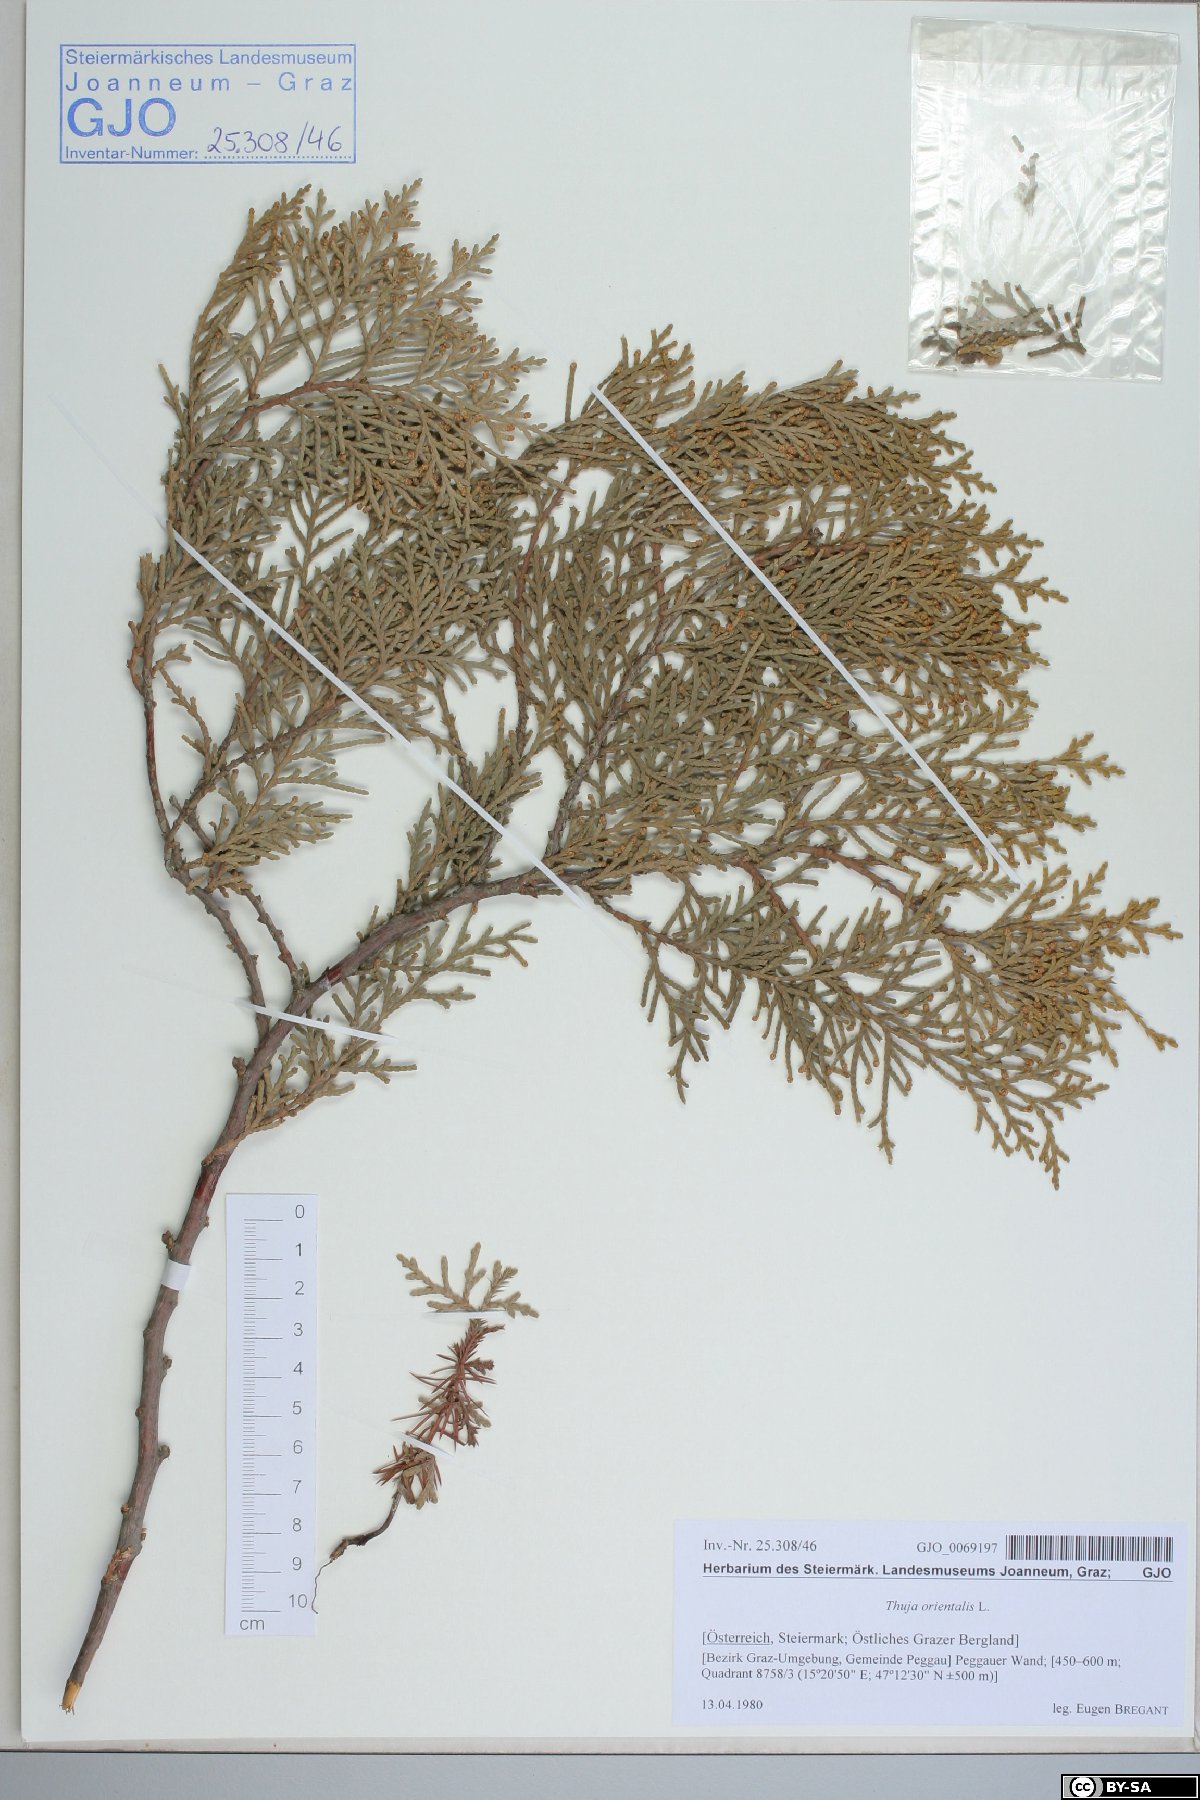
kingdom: Plantae
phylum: Tracheophyta
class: Pinopsida
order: Pinales
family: Cupressaceae
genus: Platycladus
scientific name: Platycladus orientalis
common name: Chinese thuja
